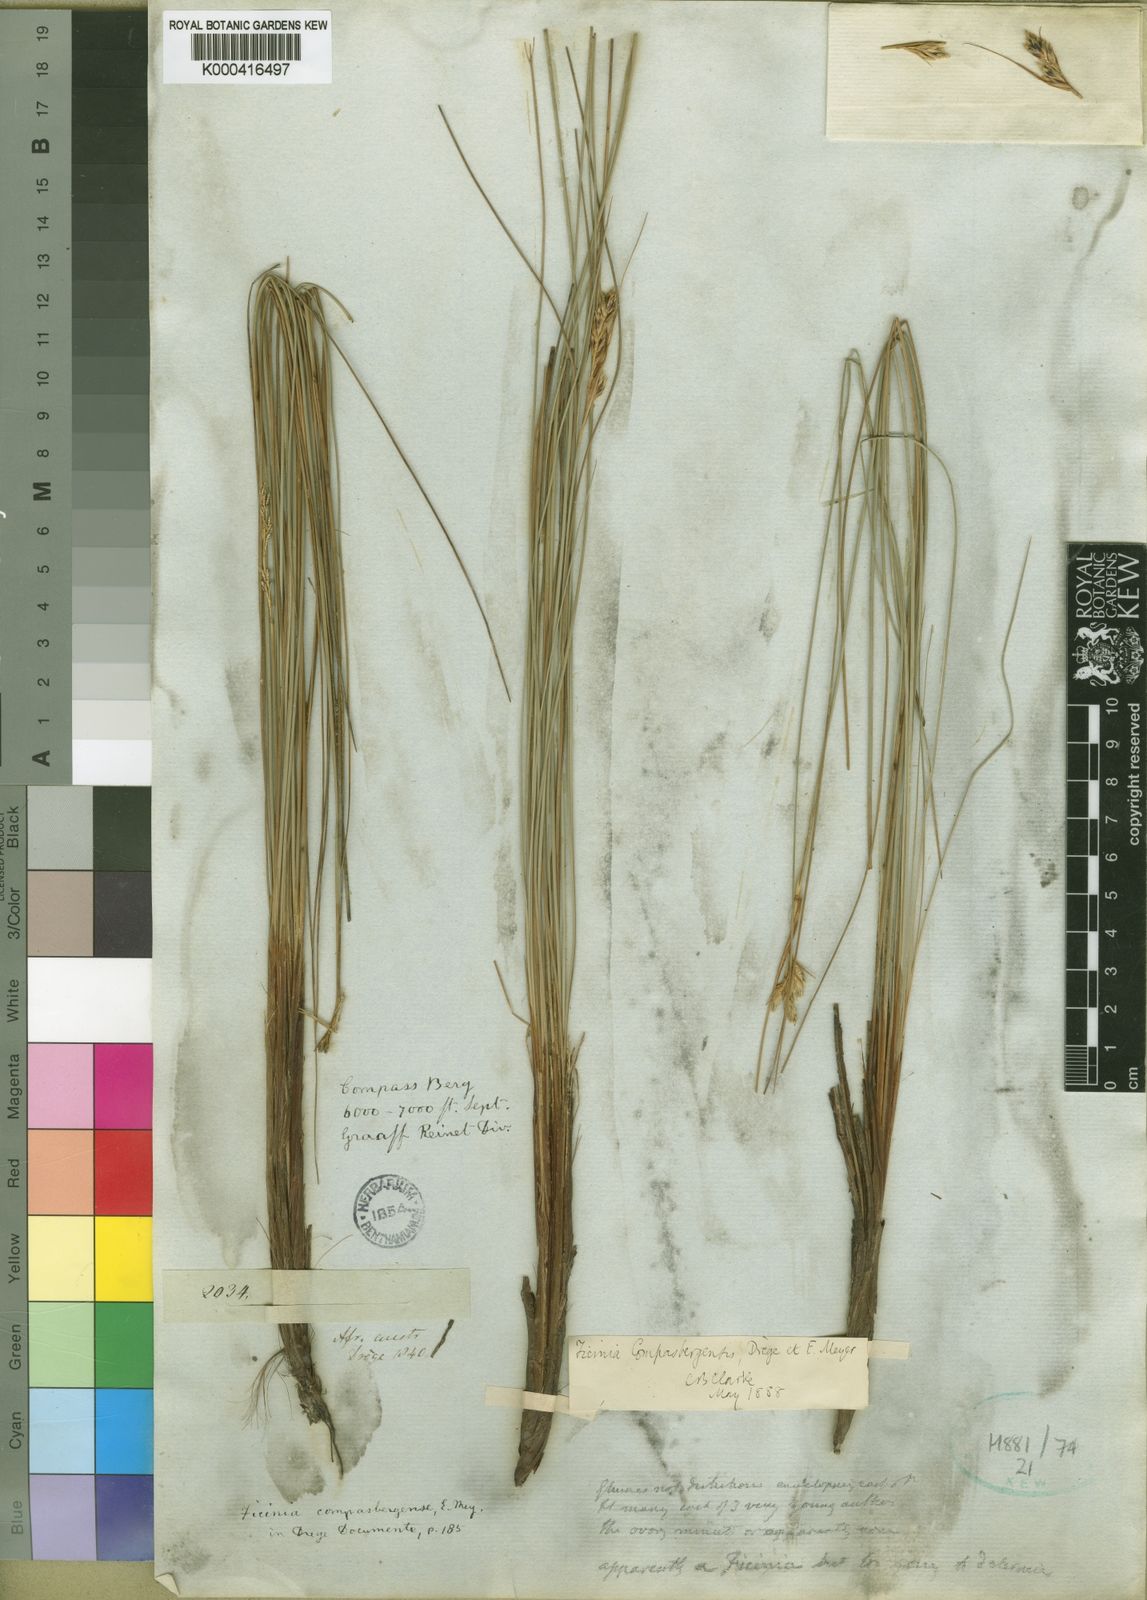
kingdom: Plantae
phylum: Tracheophyta
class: Liliopsida
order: Poales
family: Cyperaceae
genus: Ficinia
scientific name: Ficinia
